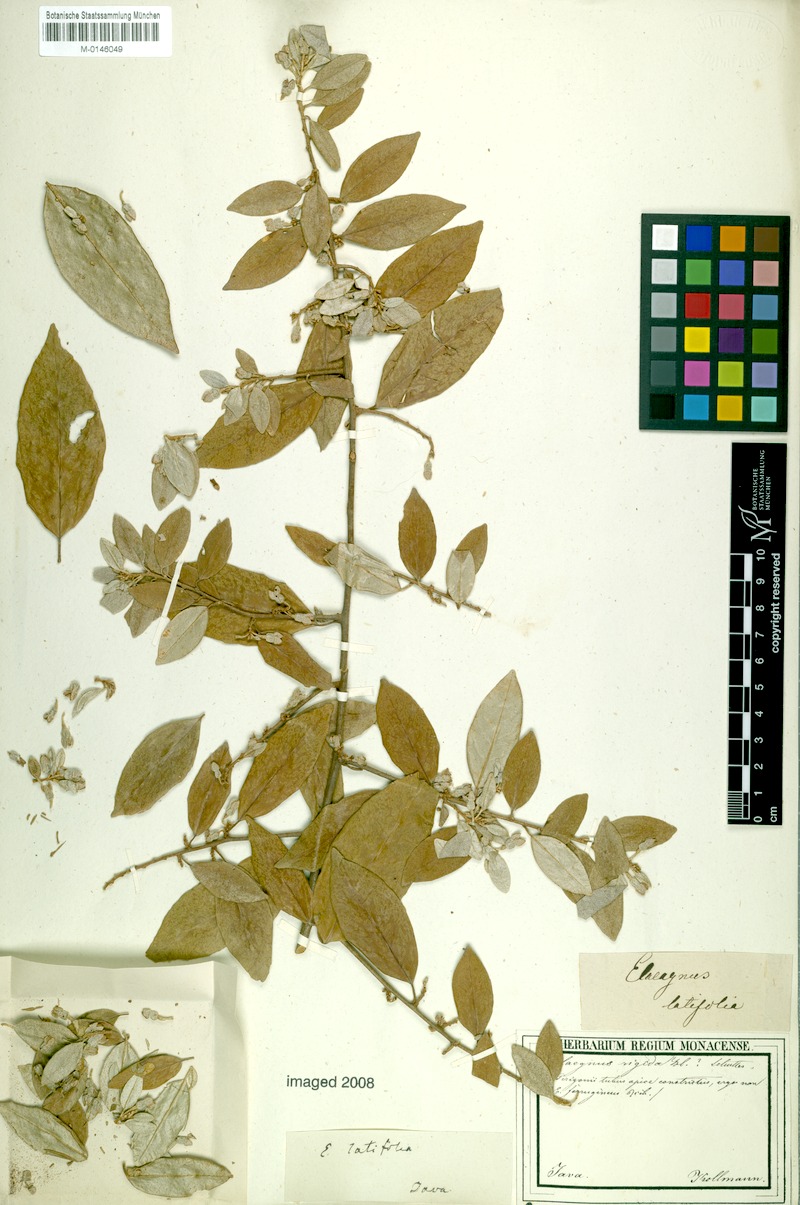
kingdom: Plantae
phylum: Tracheophyta
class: Magnoliopsida
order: Rosales
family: Elaeagnaceae
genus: Elaeagnus
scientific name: Elaeagnus latifolia
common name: Oleaster
